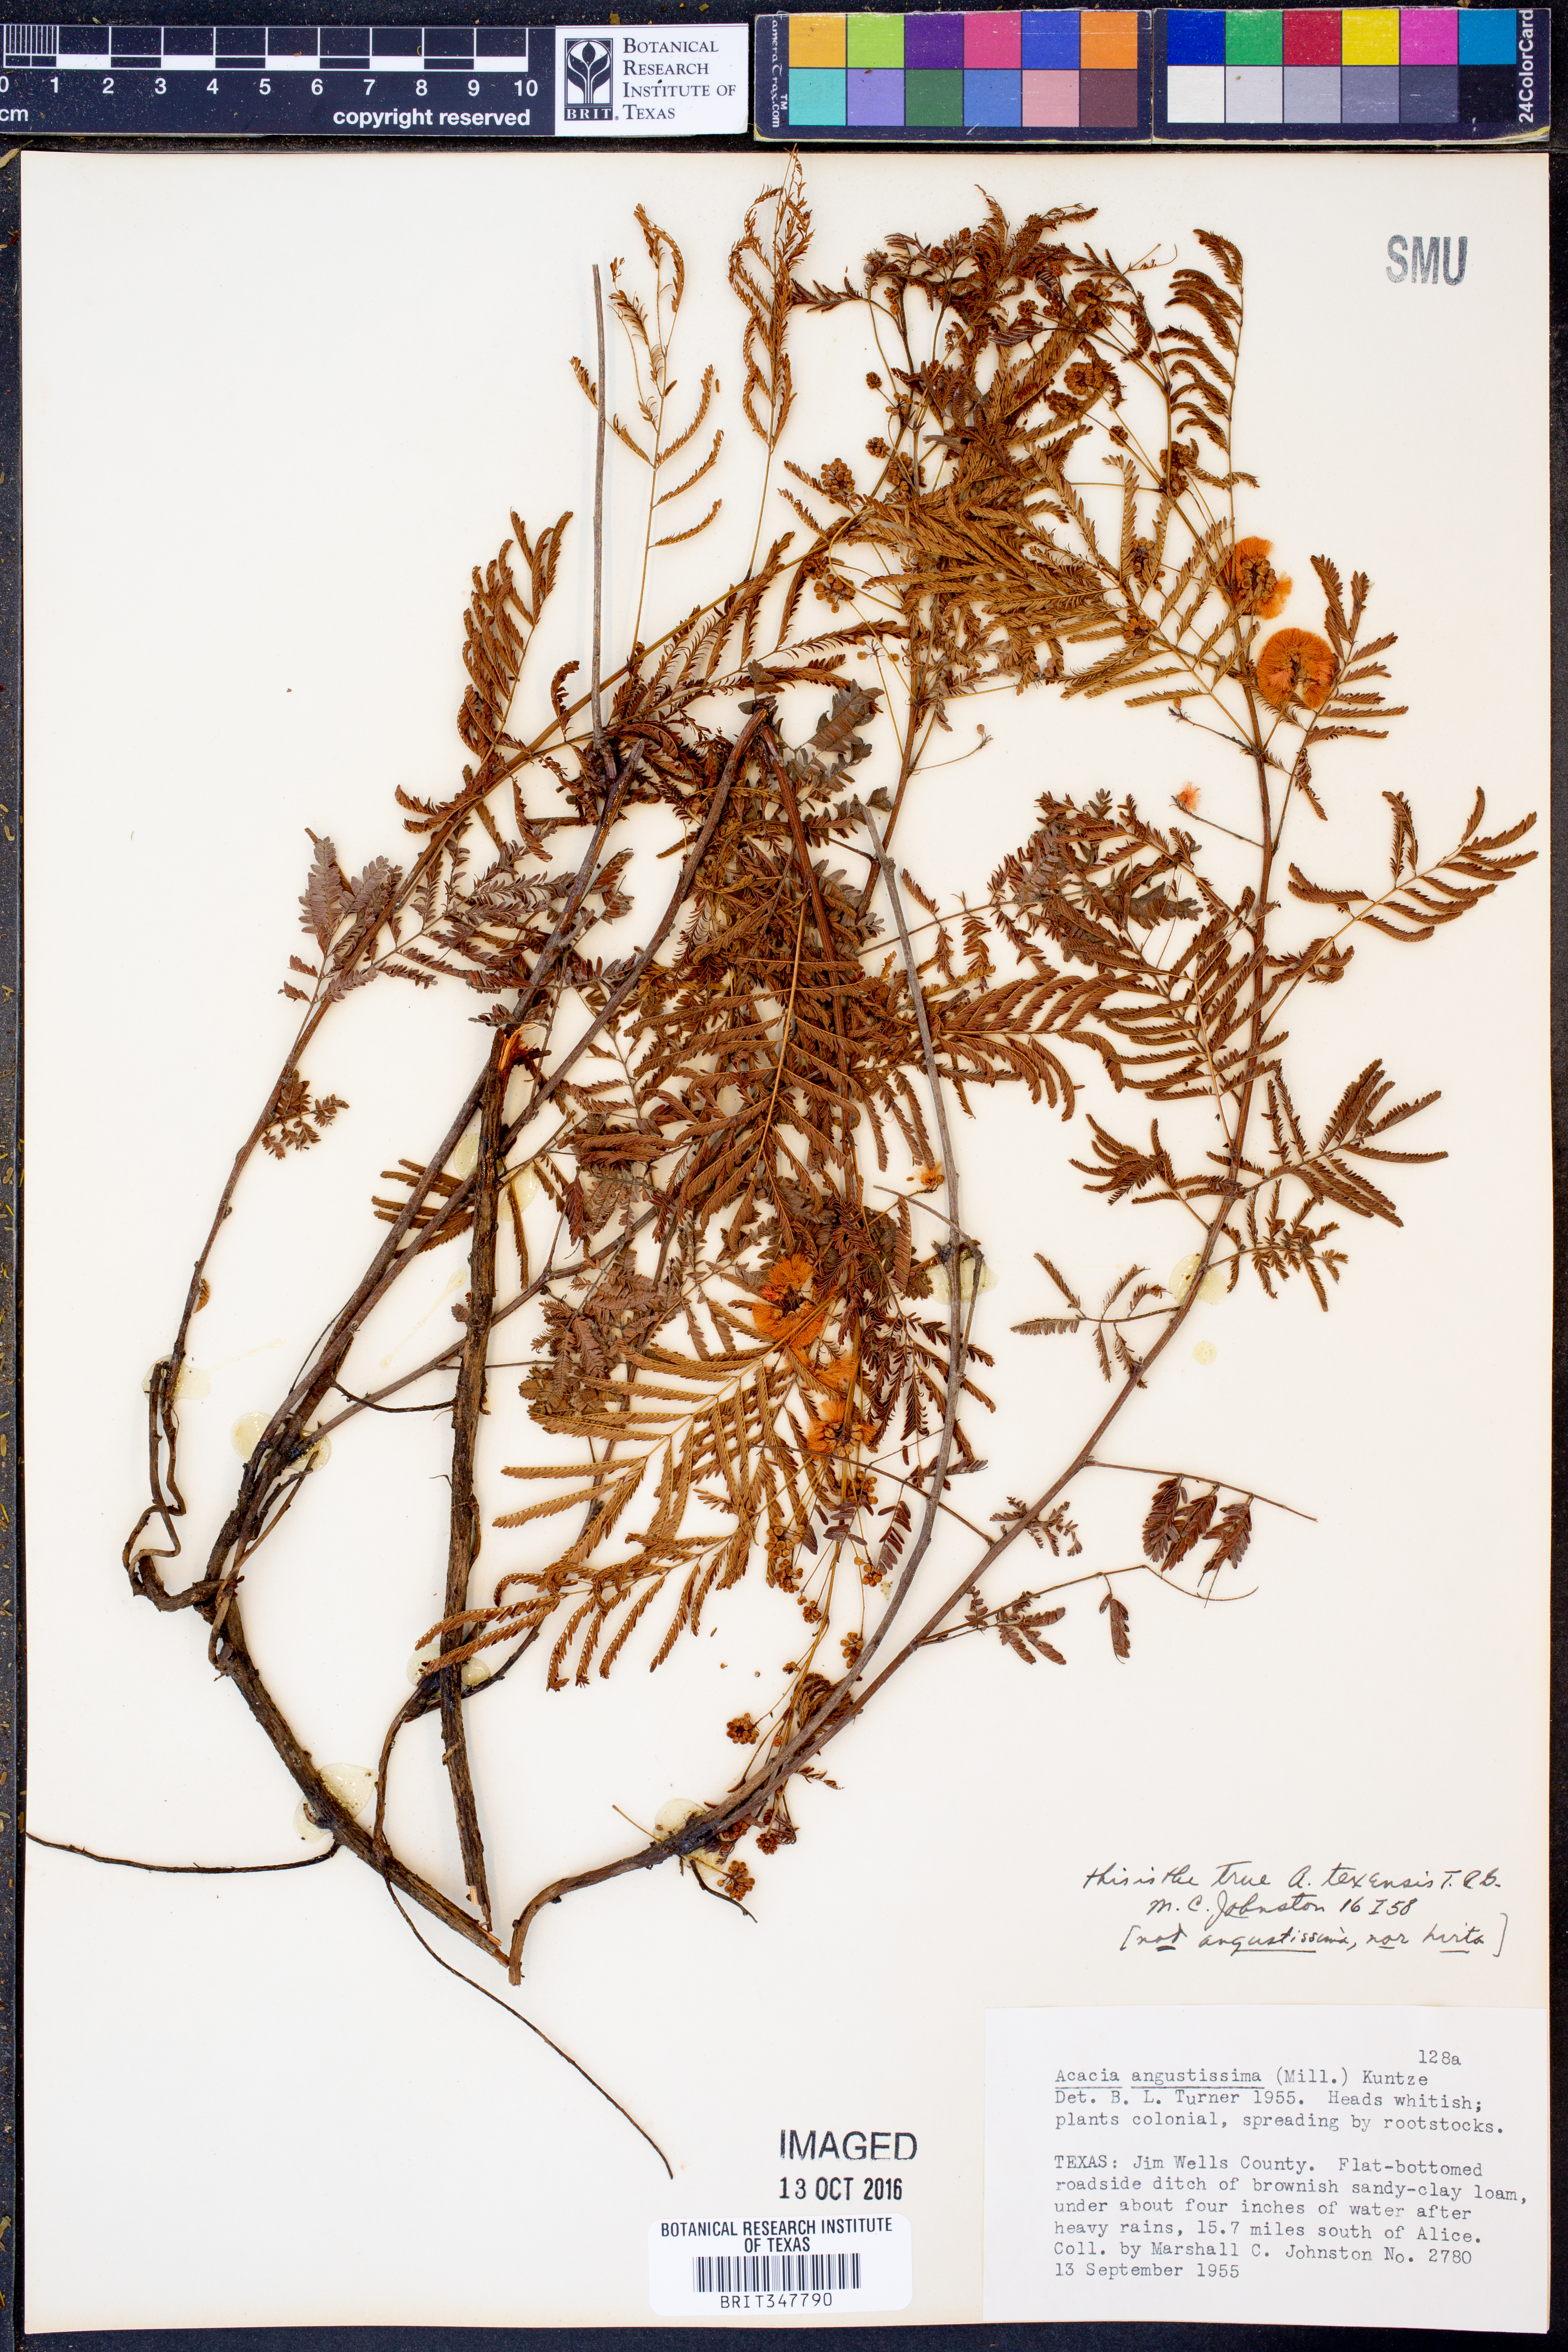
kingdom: Plantae
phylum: Tracheophyta
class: Magnoliopsida
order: Fabales
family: Fabaceae
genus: Acaciella
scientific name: Acaciella angustissima
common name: Prairie acacia
